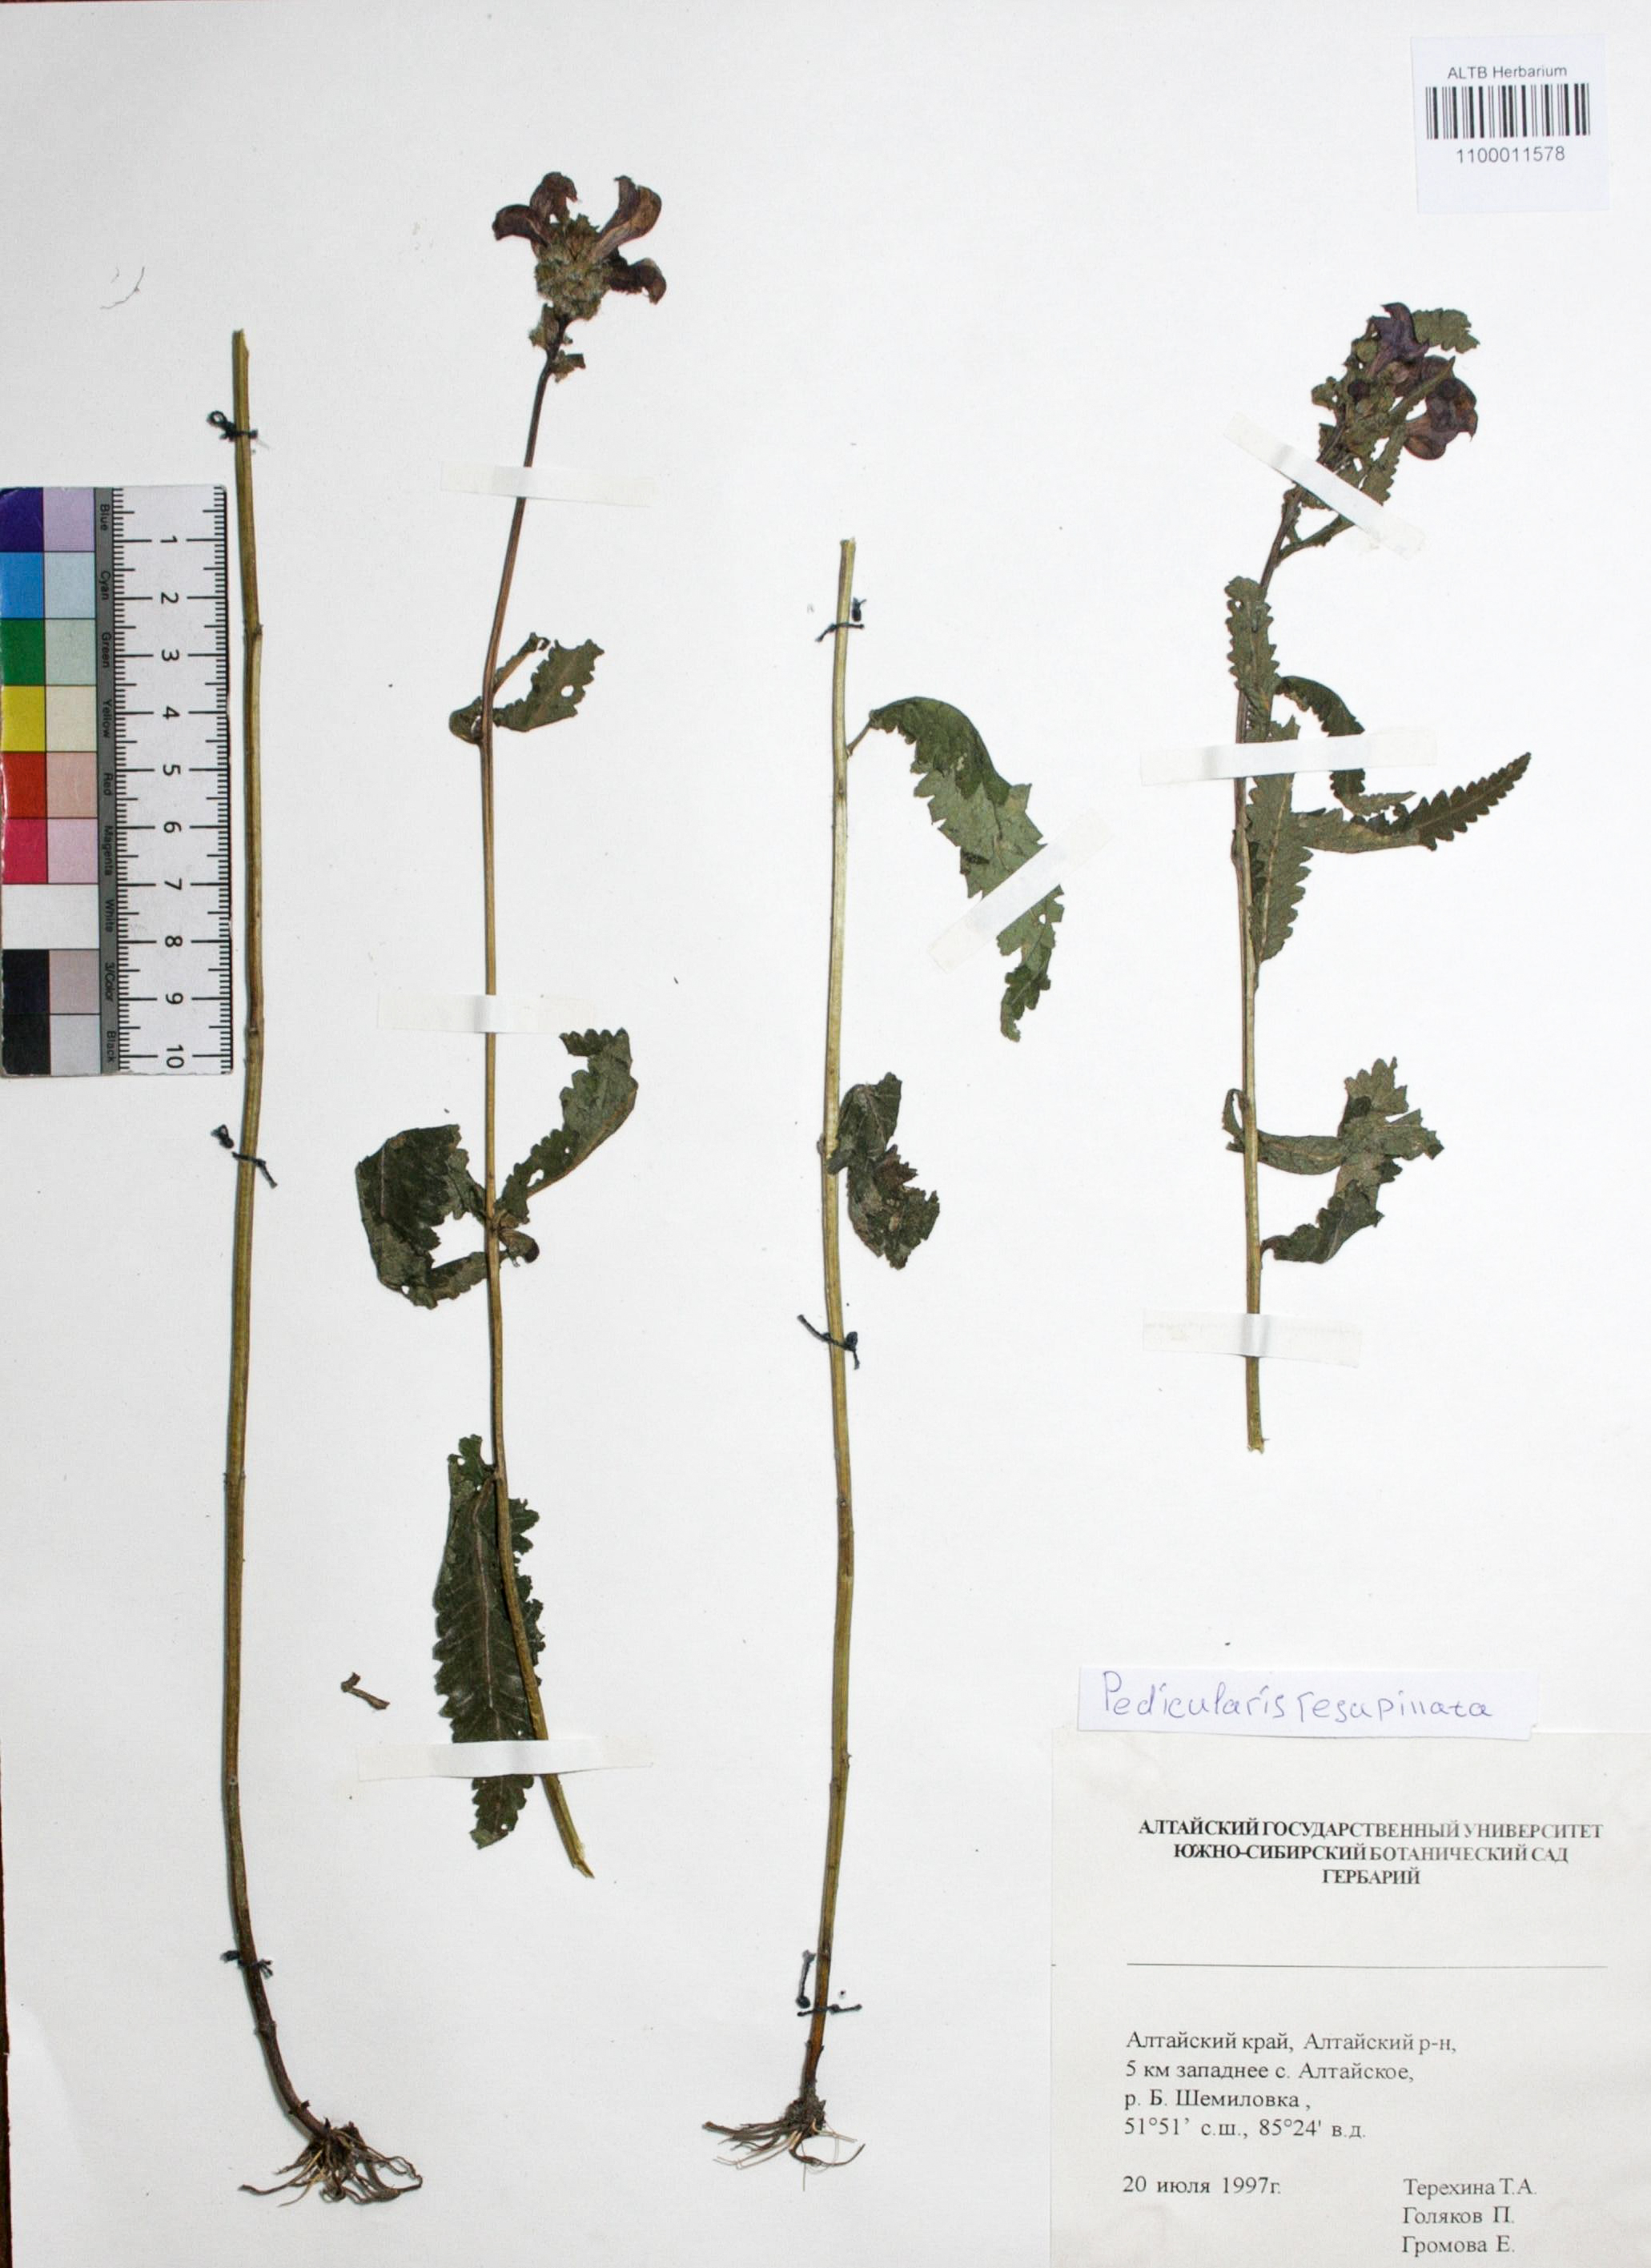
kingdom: Plantae
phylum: Tracheophyta
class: Magnoliopsida
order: Lamiales
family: Orobanchaceae
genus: Pedicularis
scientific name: Pedicularis resupinata
